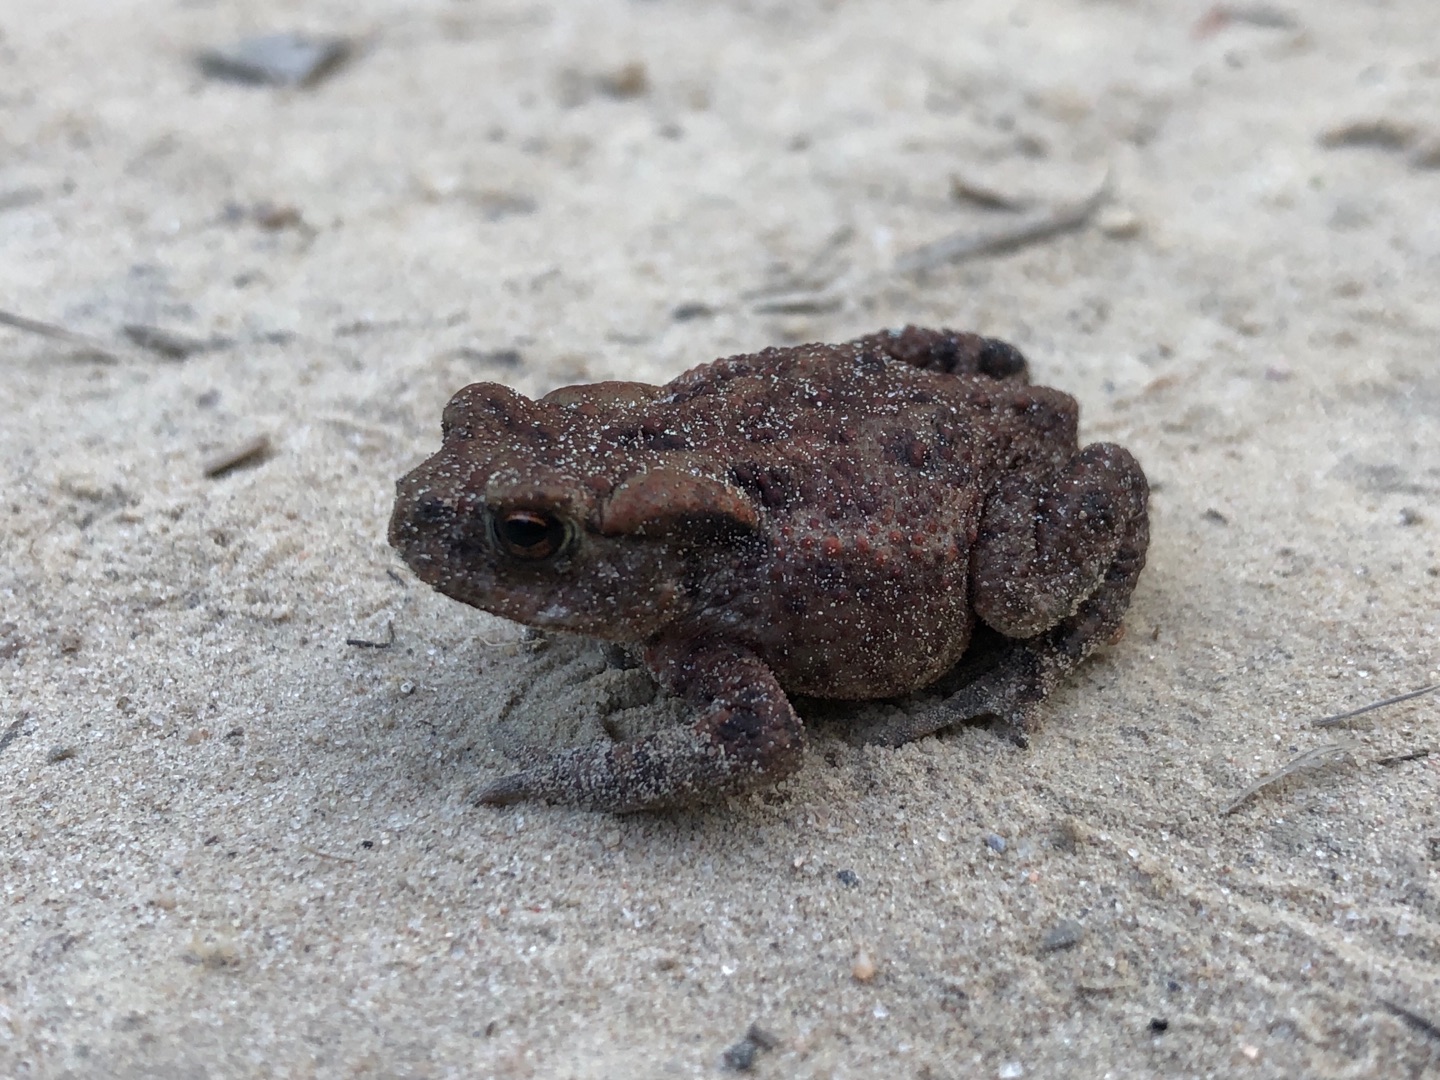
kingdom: Animalia
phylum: Chordata
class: Amphibia
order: Anura
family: Bufonidae
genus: Bufo
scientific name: Bufo bufo
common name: Skrubtudse
